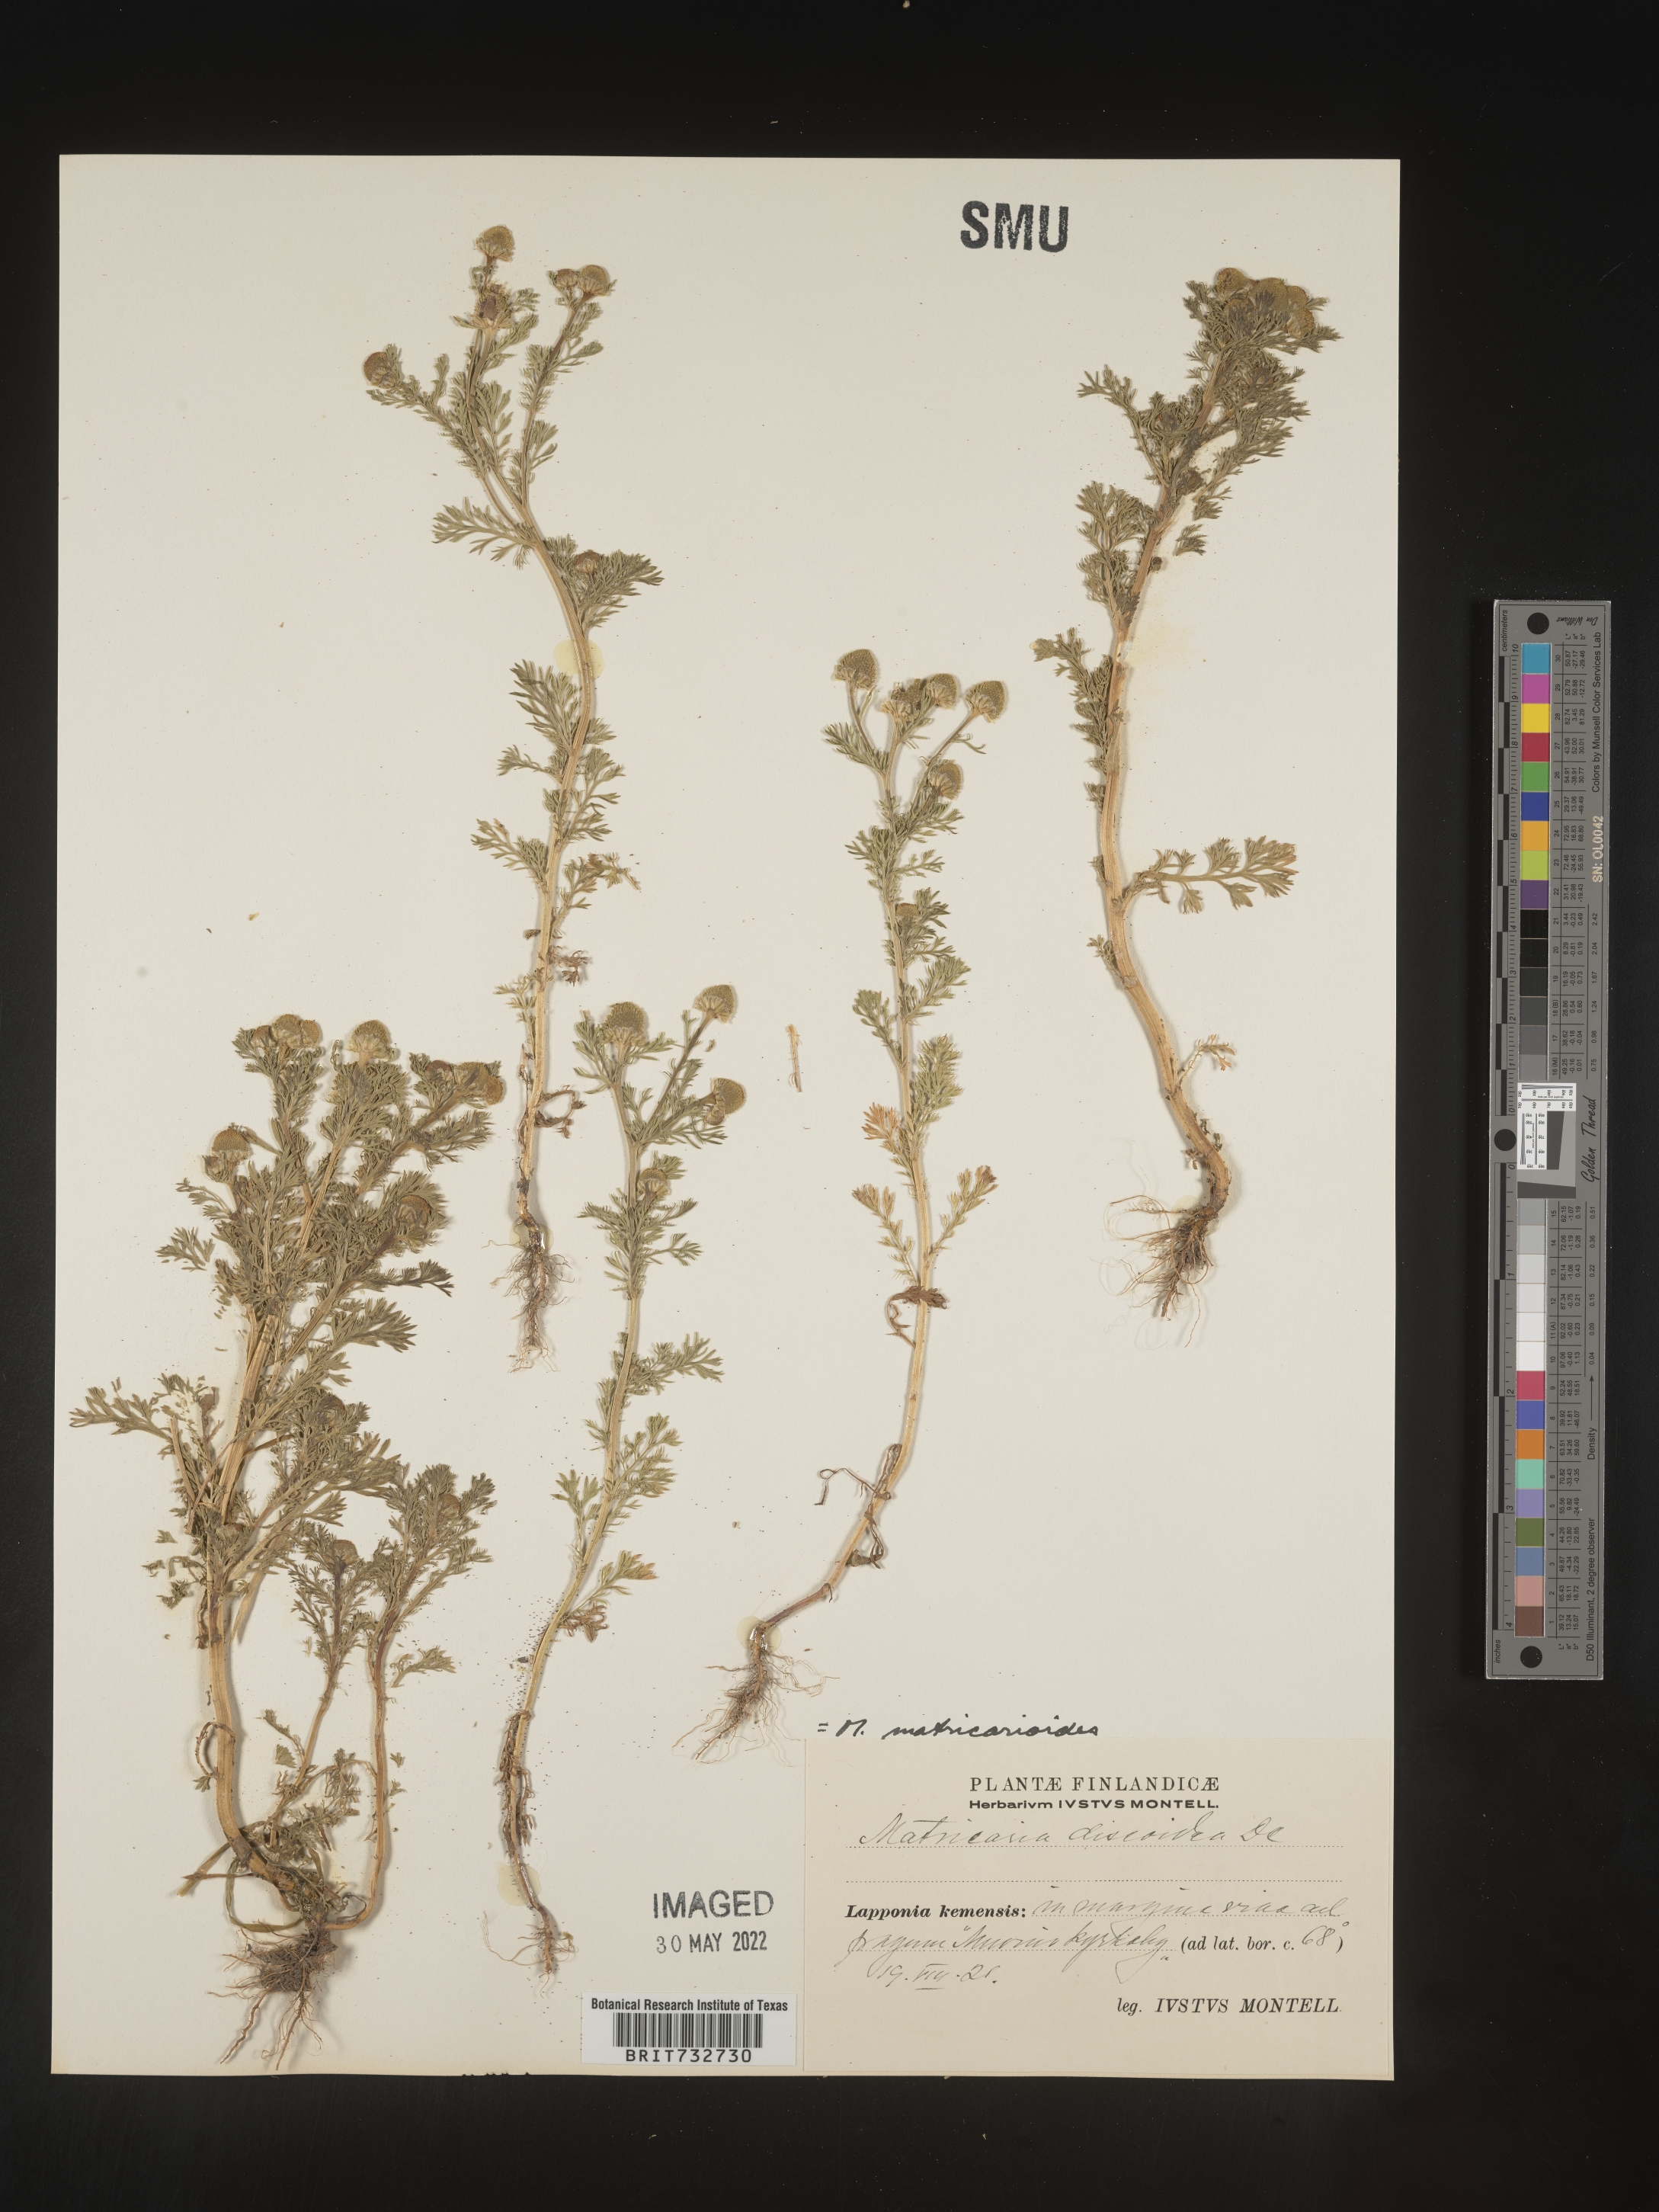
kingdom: Plantae
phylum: Tracheophyta
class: Magnoliopsida
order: Asterales
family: Asteraceae
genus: Matricaria
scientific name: Matricaria
